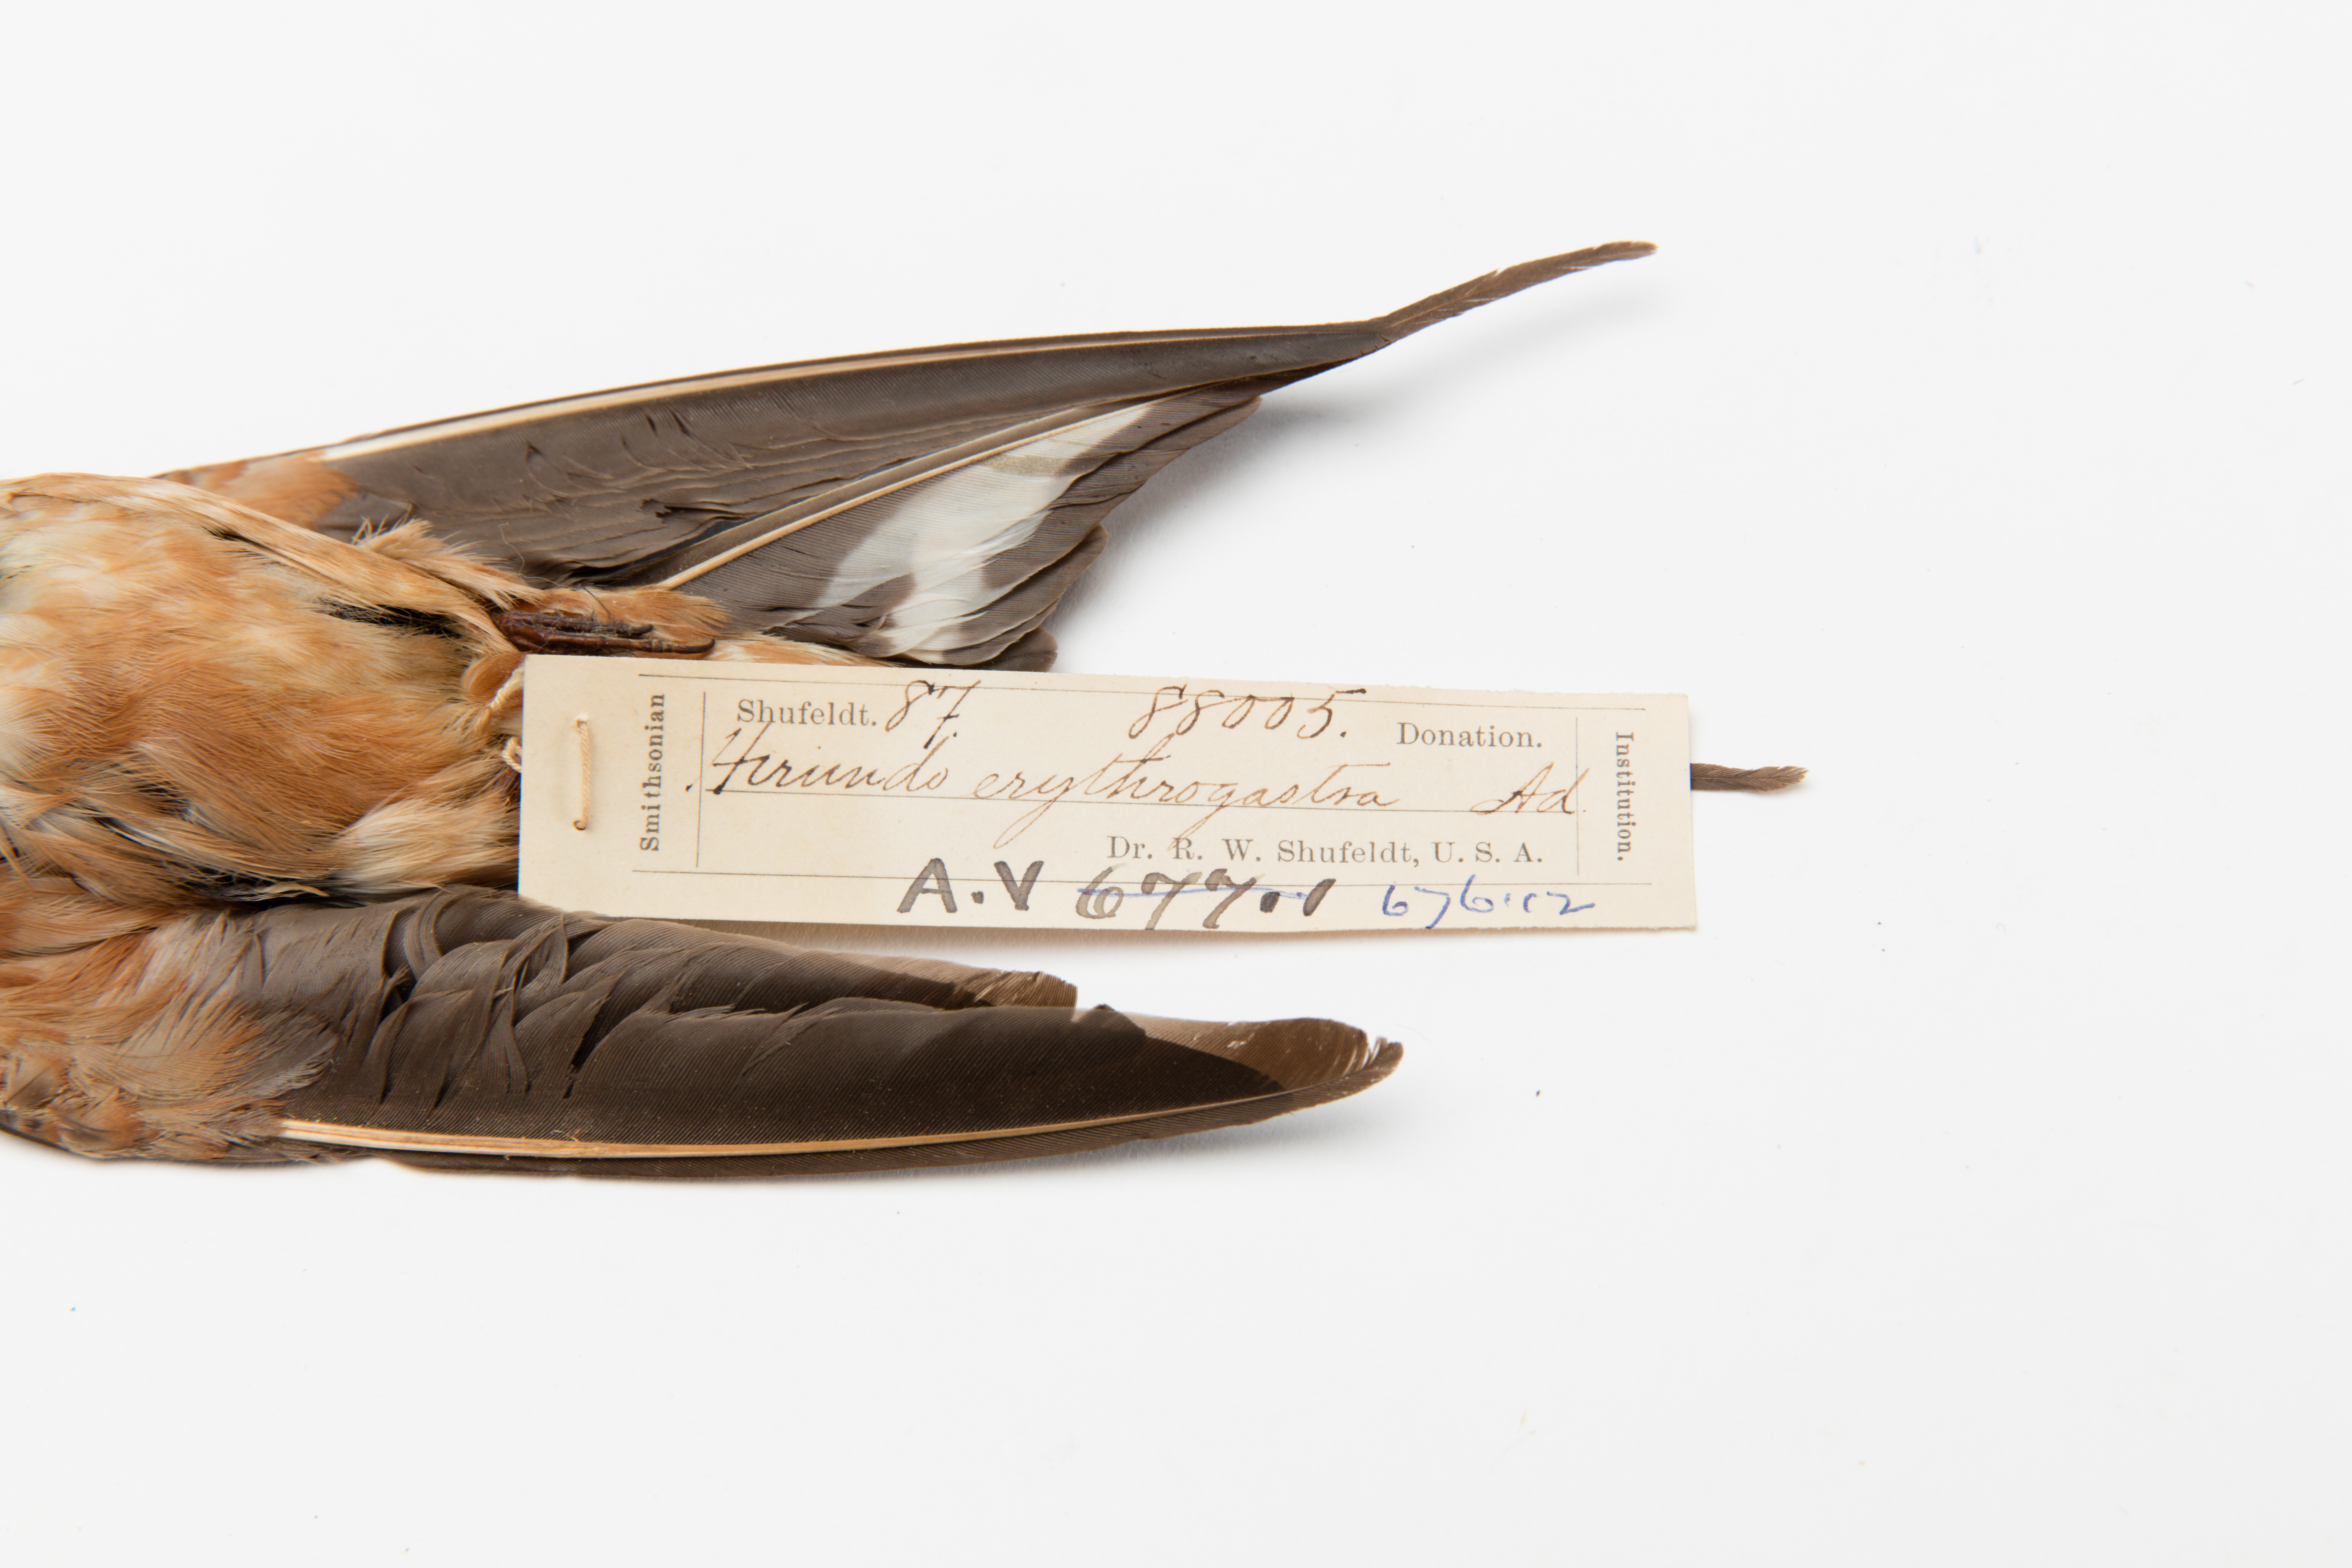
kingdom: Animalia
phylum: Chordata
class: Aves
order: Passeriformes
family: Hirundinidae
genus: Hirundo
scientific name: Hirundo rustica
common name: Barn swallow
